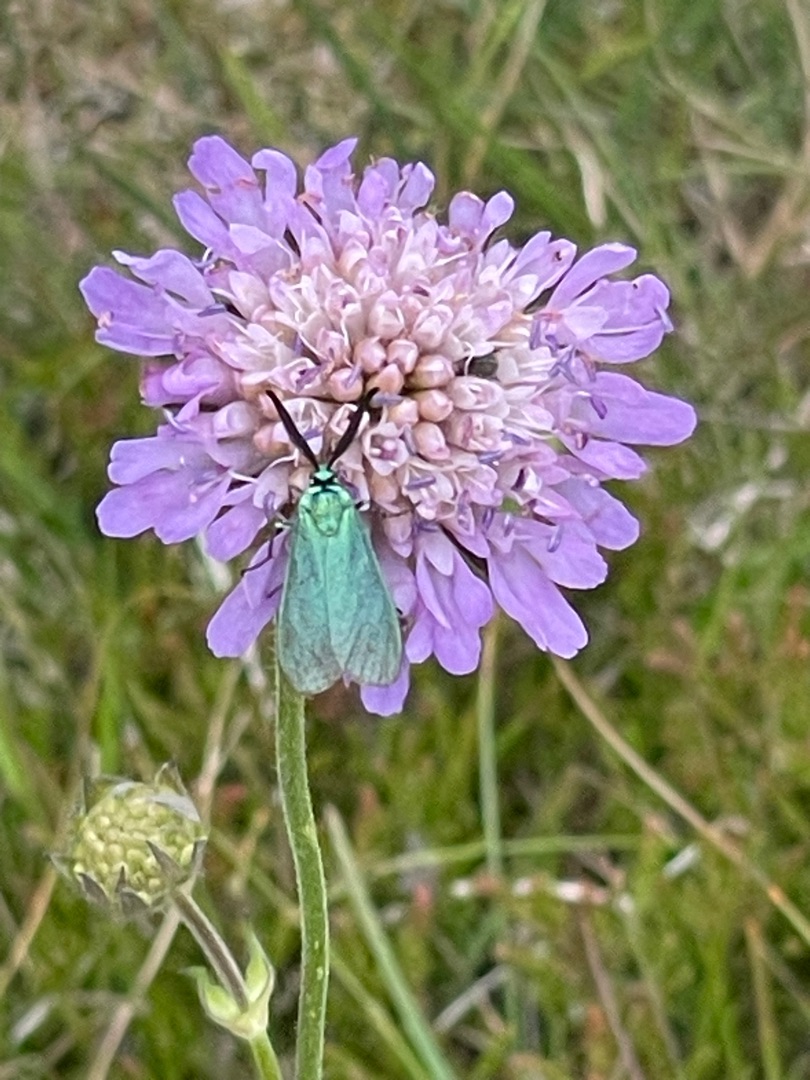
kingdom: Animalia
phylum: Arthropoda
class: Insecta
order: Lepidoptera
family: Zygaenidae
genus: Adscita
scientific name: Adscita statices
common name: Metalvinge
